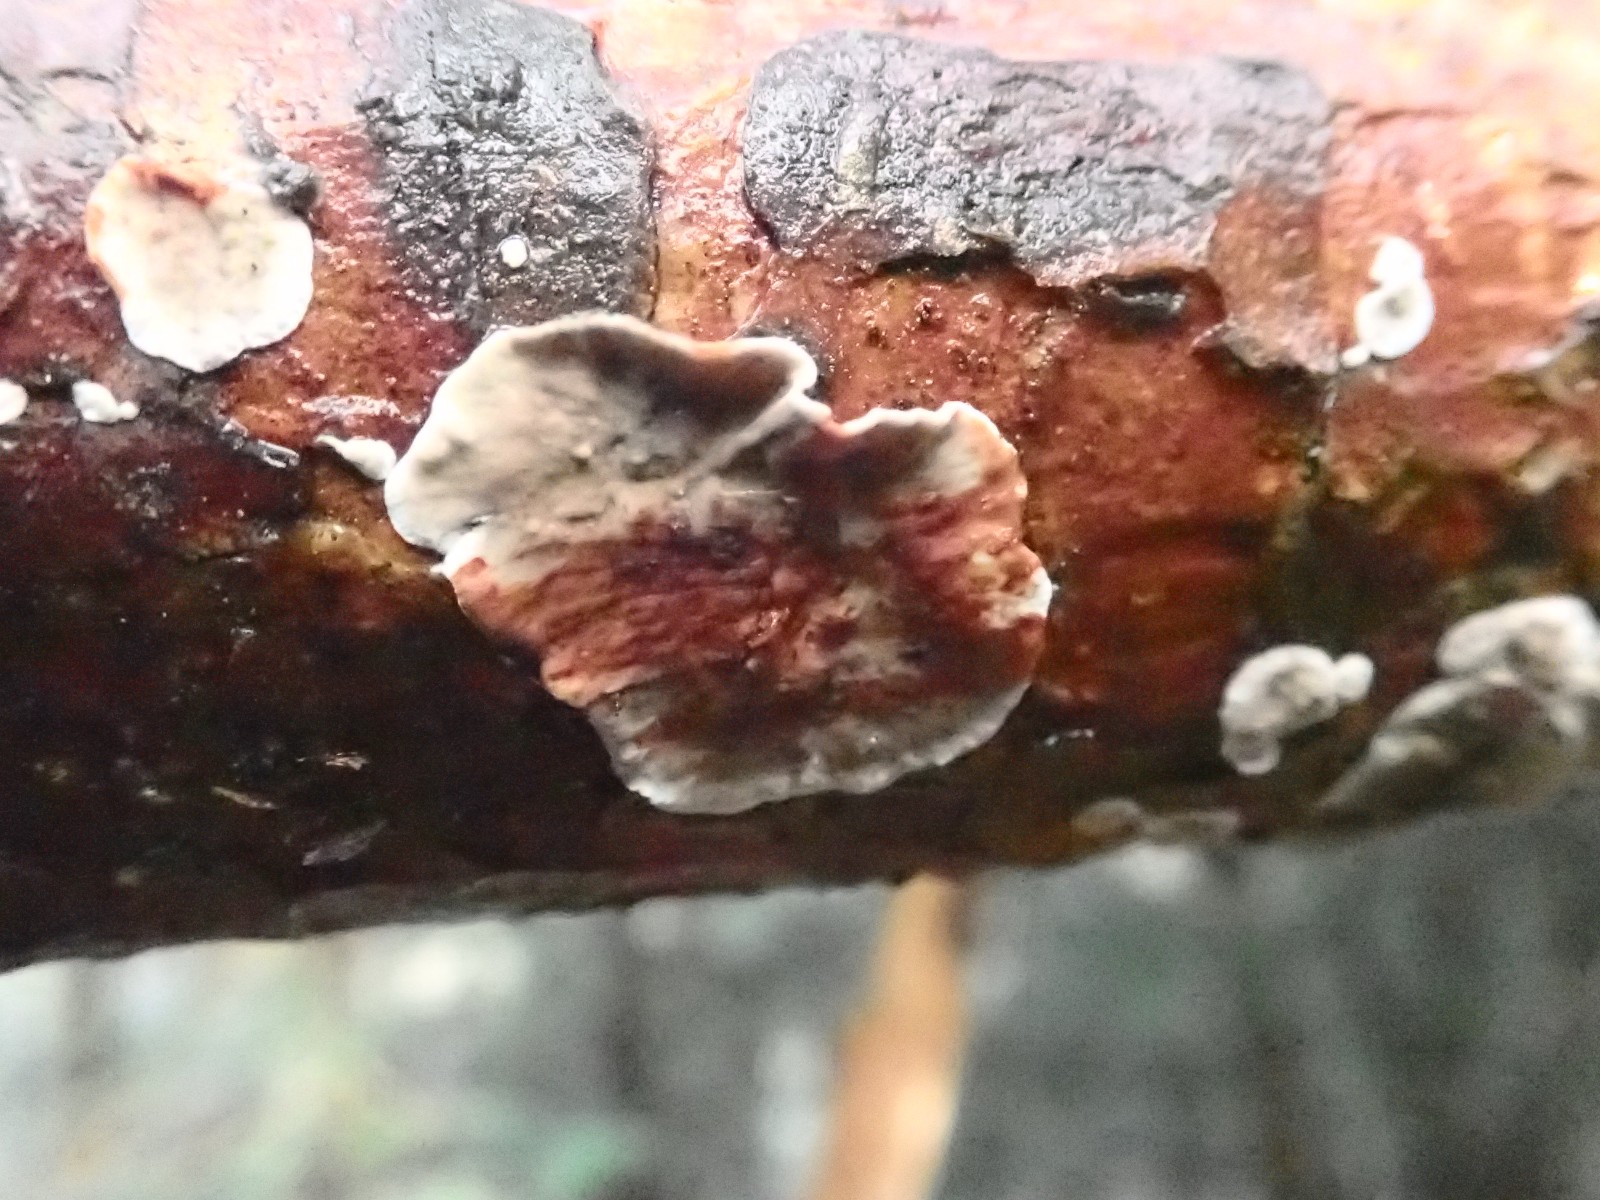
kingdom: Fungi
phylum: Basidiomycota
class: Agaricomycetes
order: Russulales
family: Stereaceae
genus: Stereum
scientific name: Stereum sanguinolentum
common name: blødende lædersvamp
